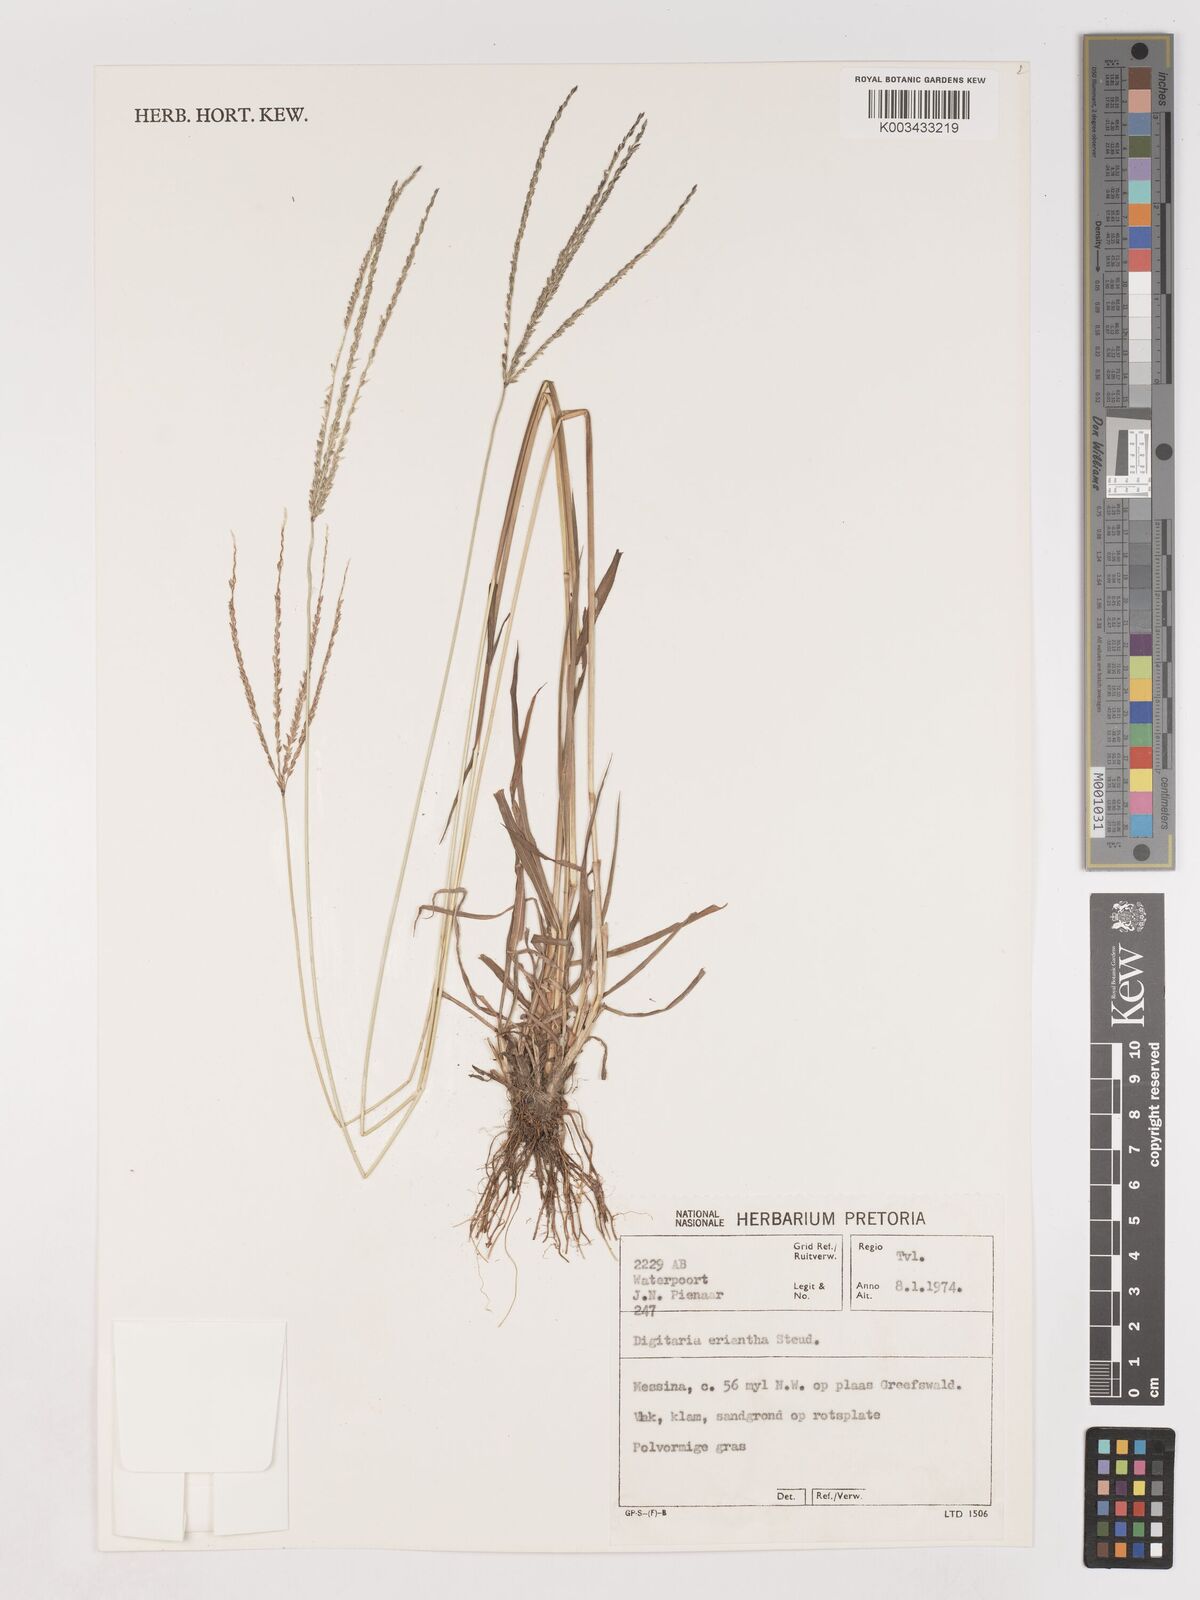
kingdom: Plantae
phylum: Tracheophyta
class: Liliopsida
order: Poales
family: Poaceae
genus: Digitaria
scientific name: Digitaria eriantha
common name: Digitgrass
